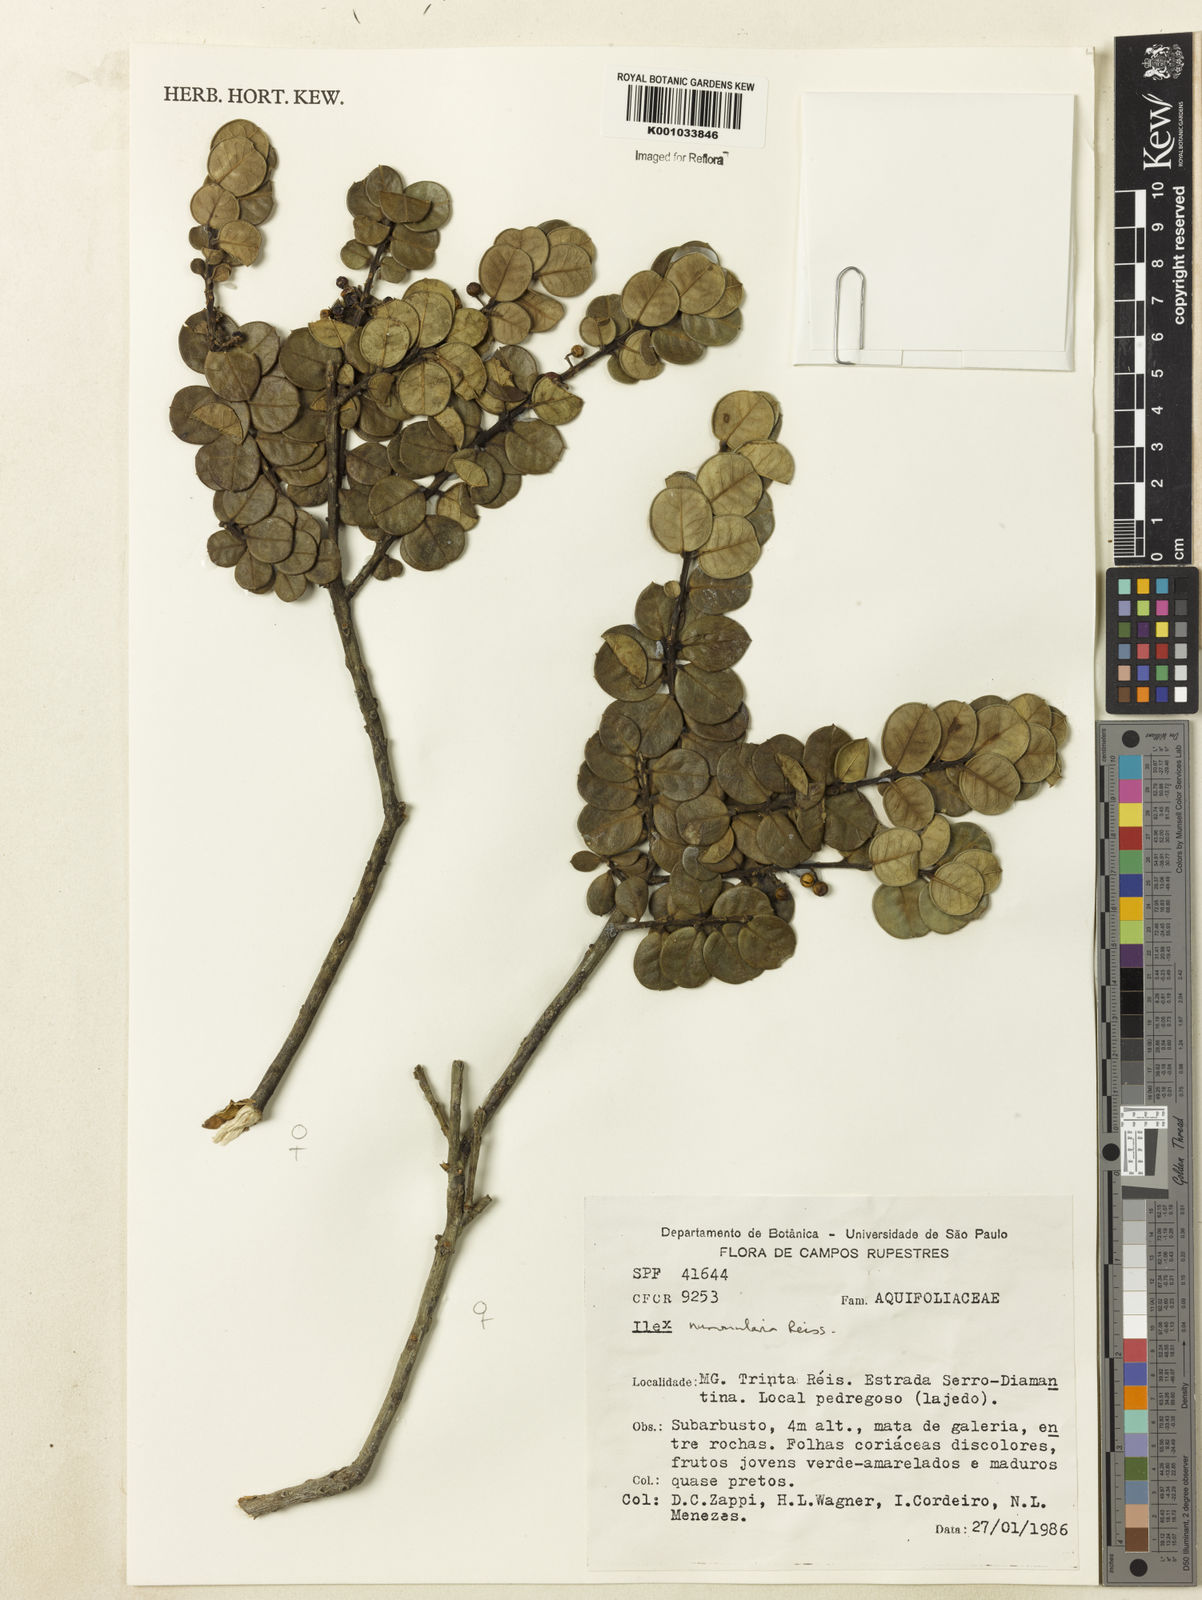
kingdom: Plantae
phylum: Tracheophyta
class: Magnoliopsida
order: Aquifoliales
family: Aquifoliaceae
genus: Ilex
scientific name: Ilex nummularia
